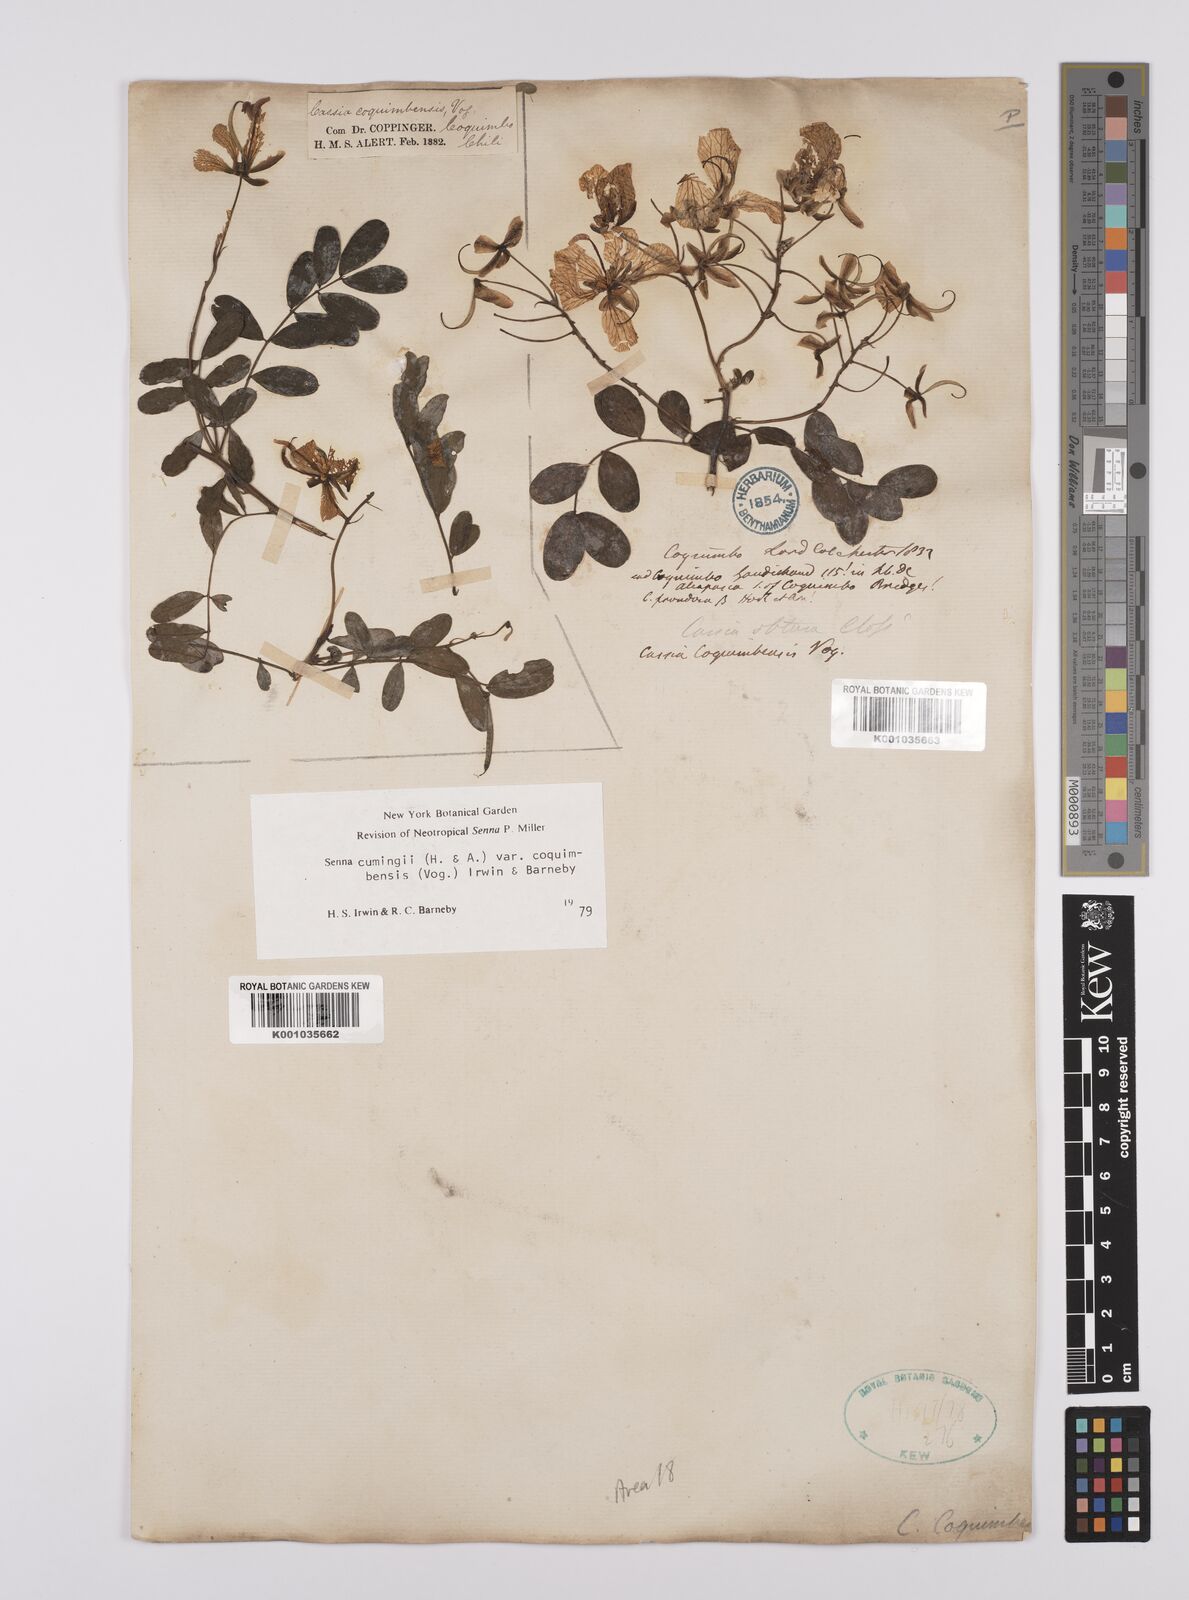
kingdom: Plantae
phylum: Tracheophyta
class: Magnoliopsida
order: Fabales
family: Fabaceae
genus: Senna
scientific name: Senna cumingii
